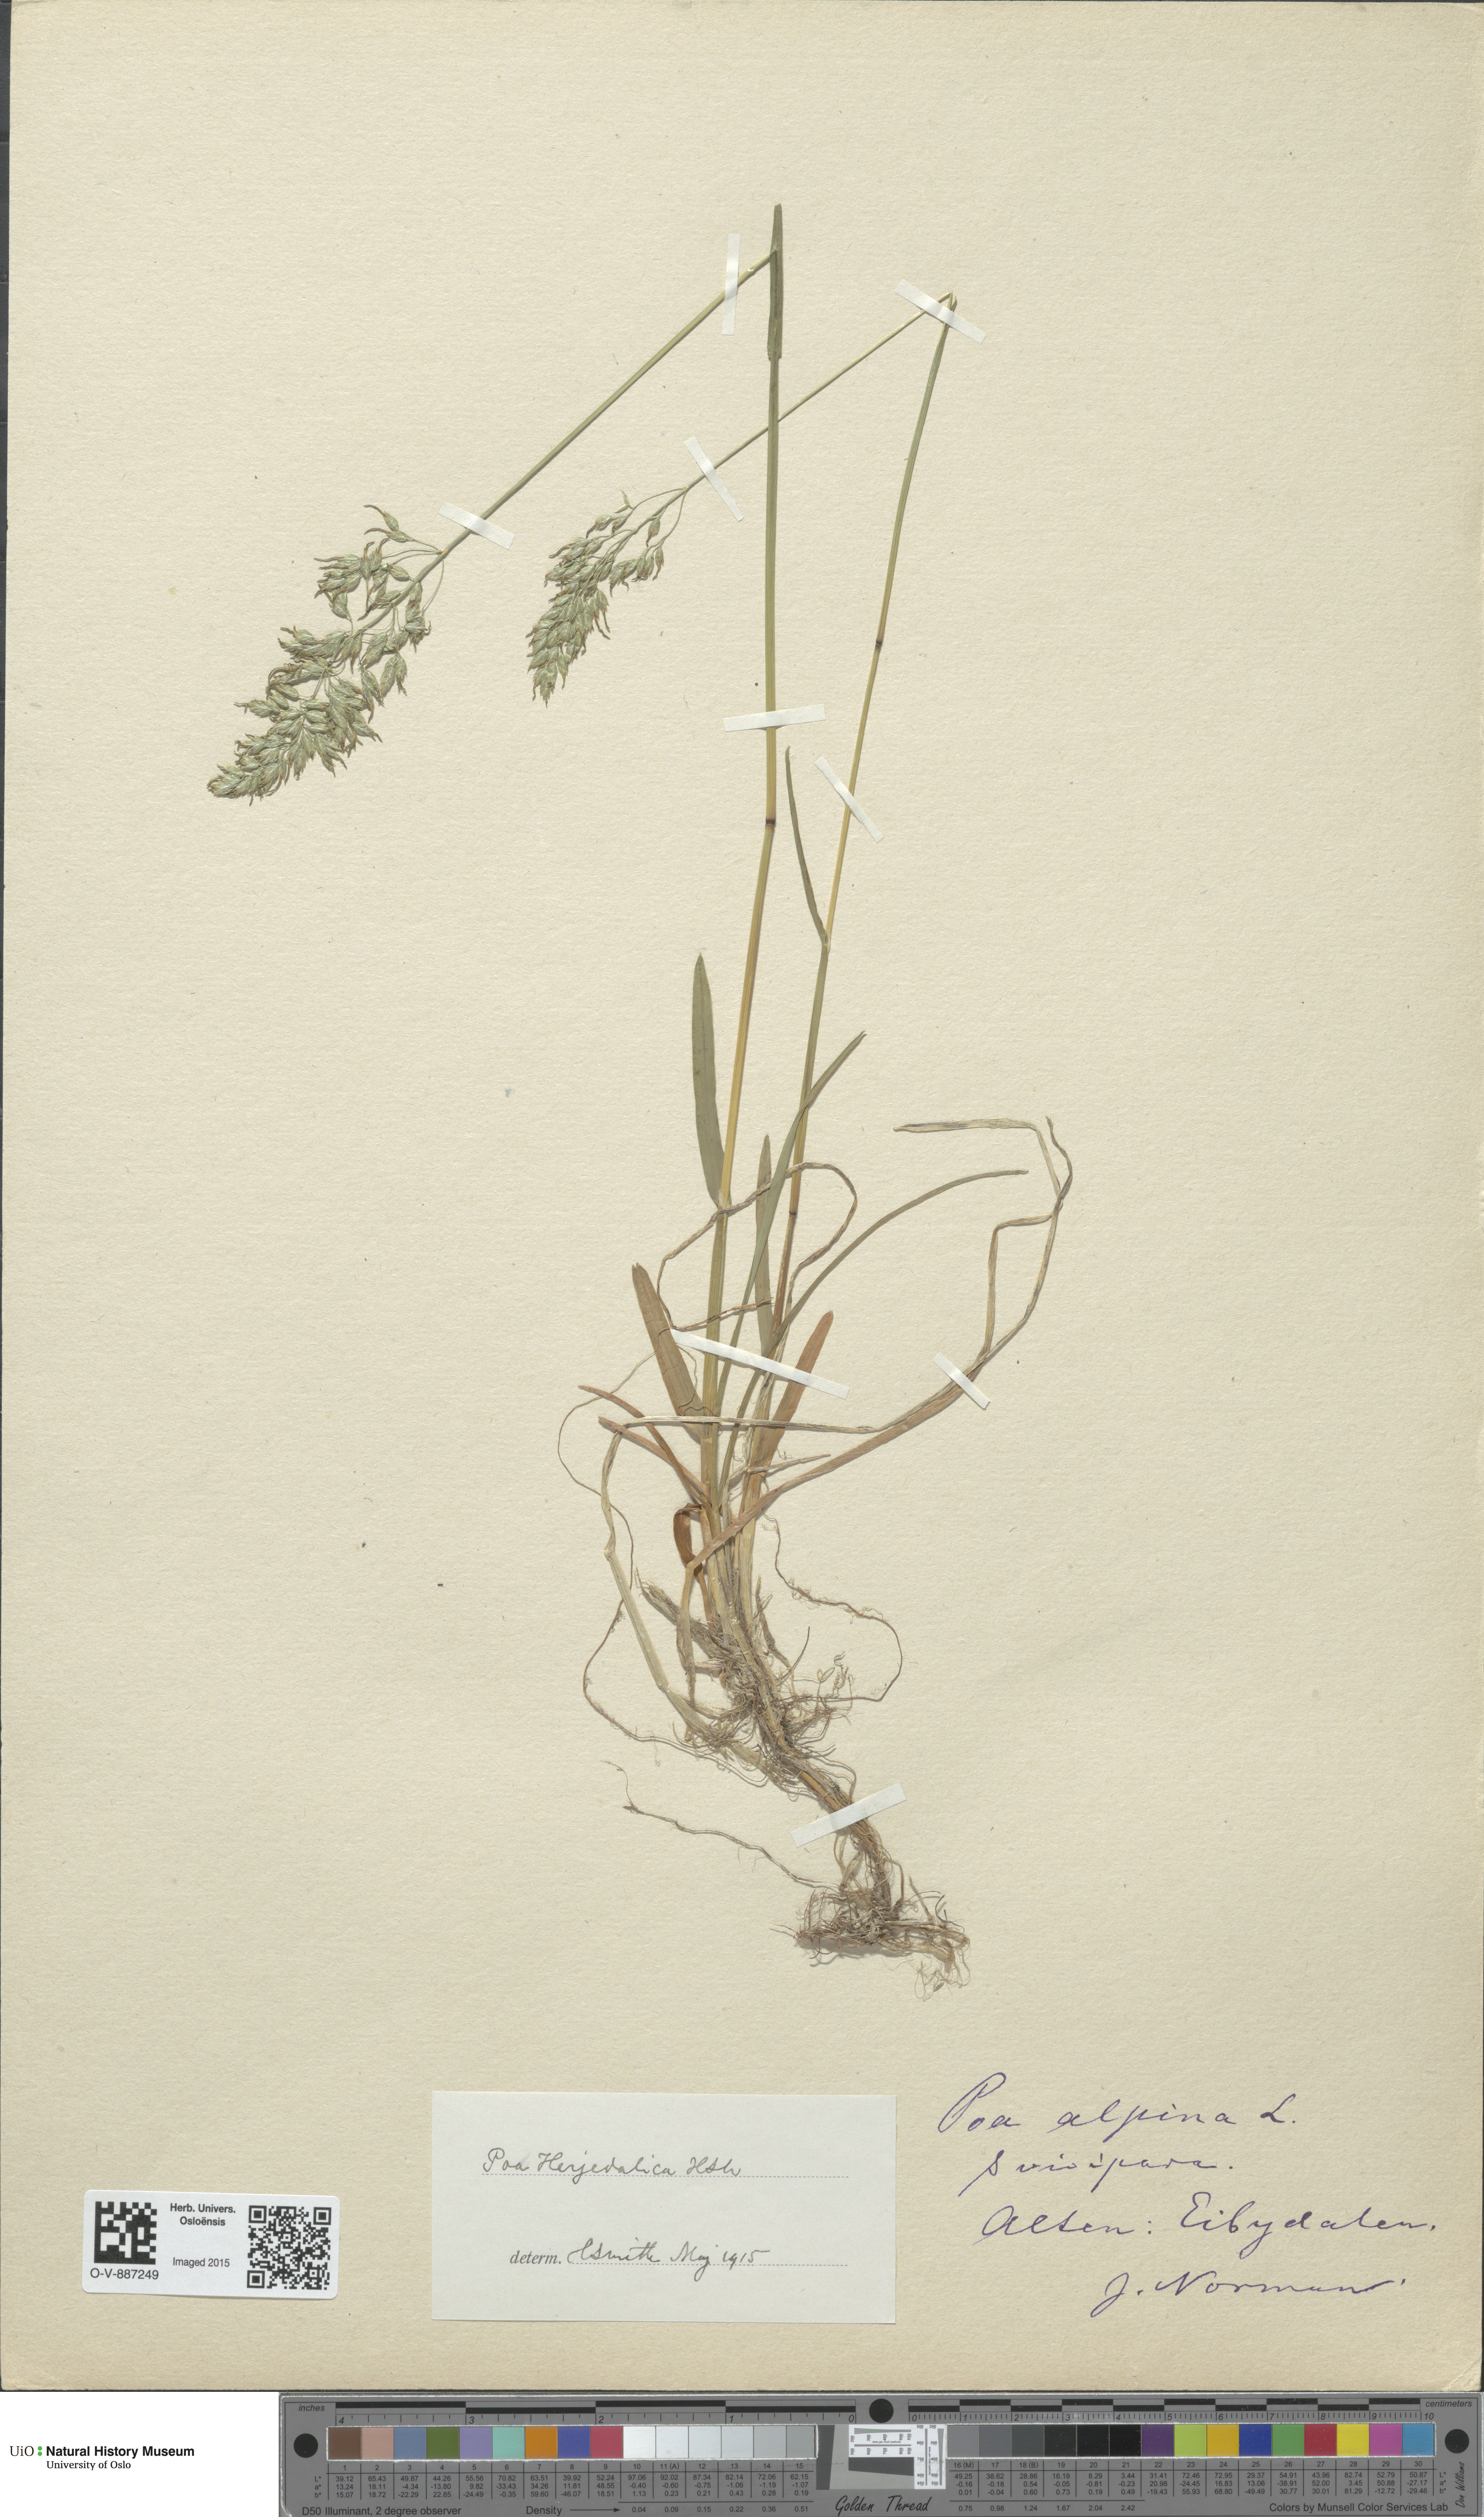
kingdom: Plantae
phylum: Tracheophyta
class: Liliopsida
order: Poales
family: Poaceae
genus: Poa
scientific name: Poa herjedalica
